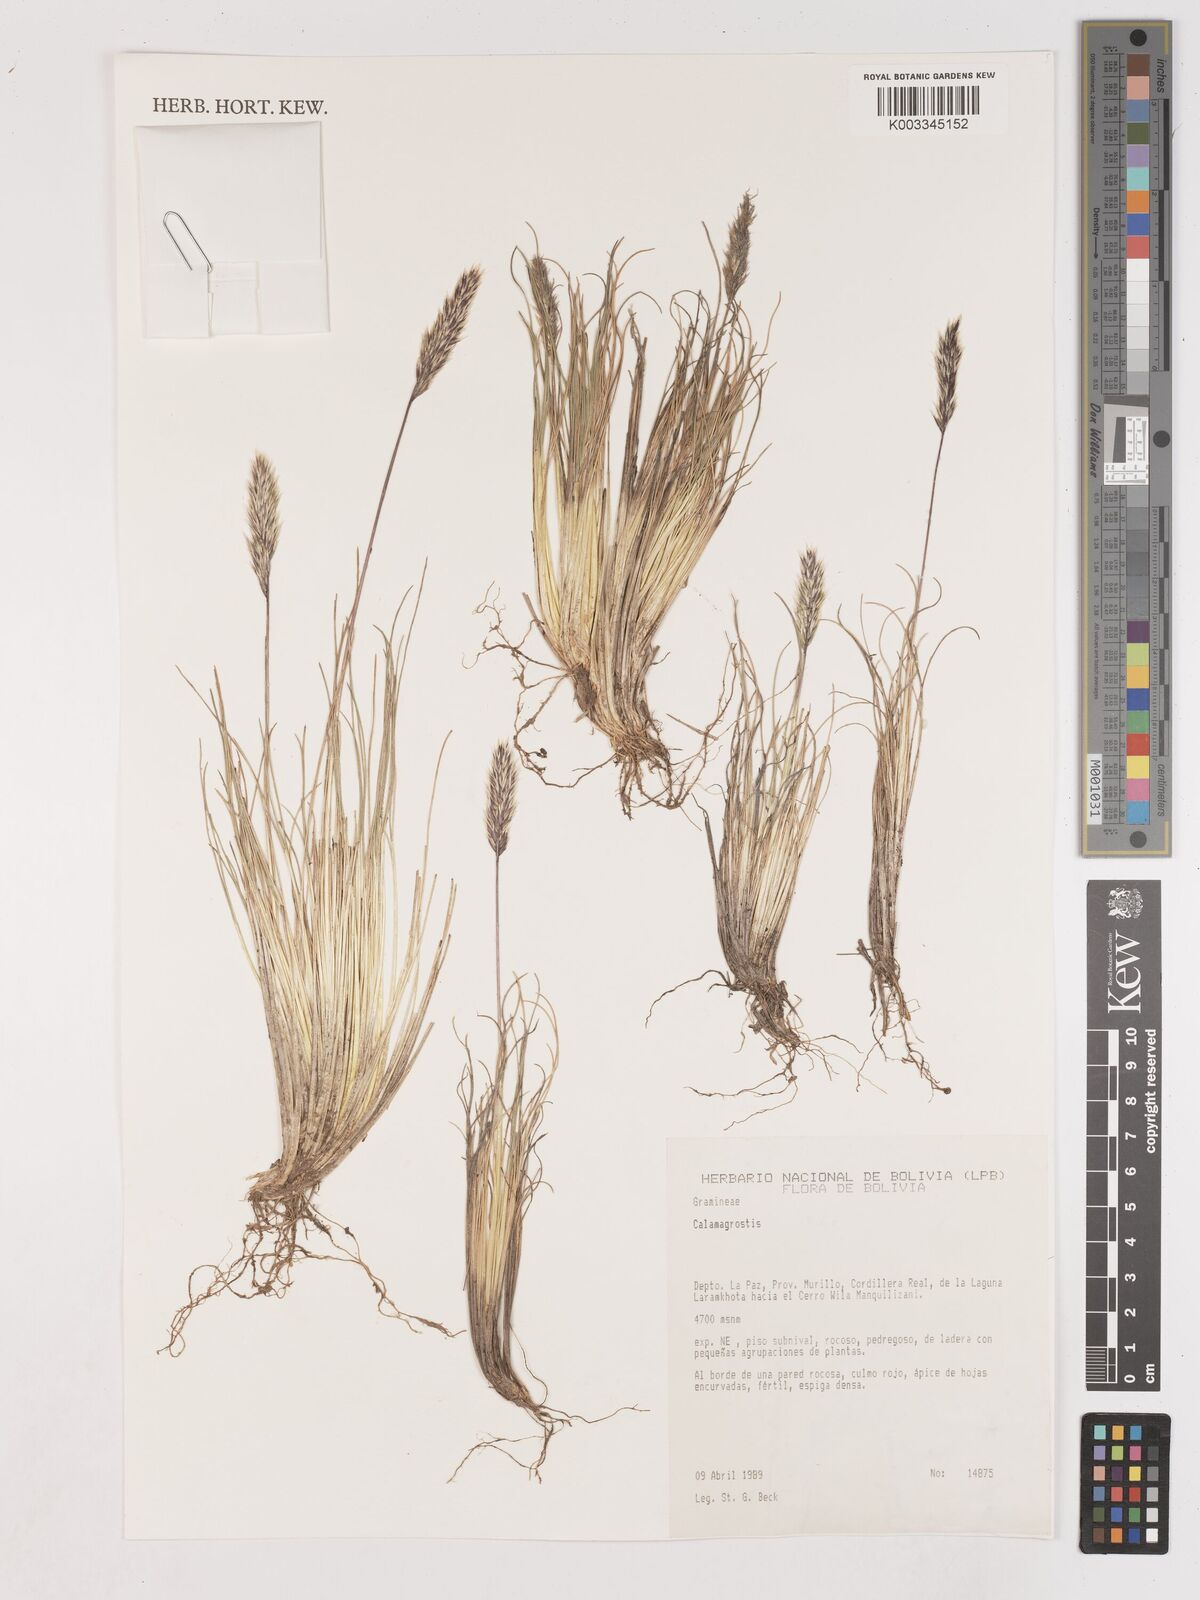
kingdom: Plantae
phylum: Tracheophyta
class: Liliopsida
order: Poales
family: Poaceae
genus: Calamagrostis
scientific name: Calamagrostis
